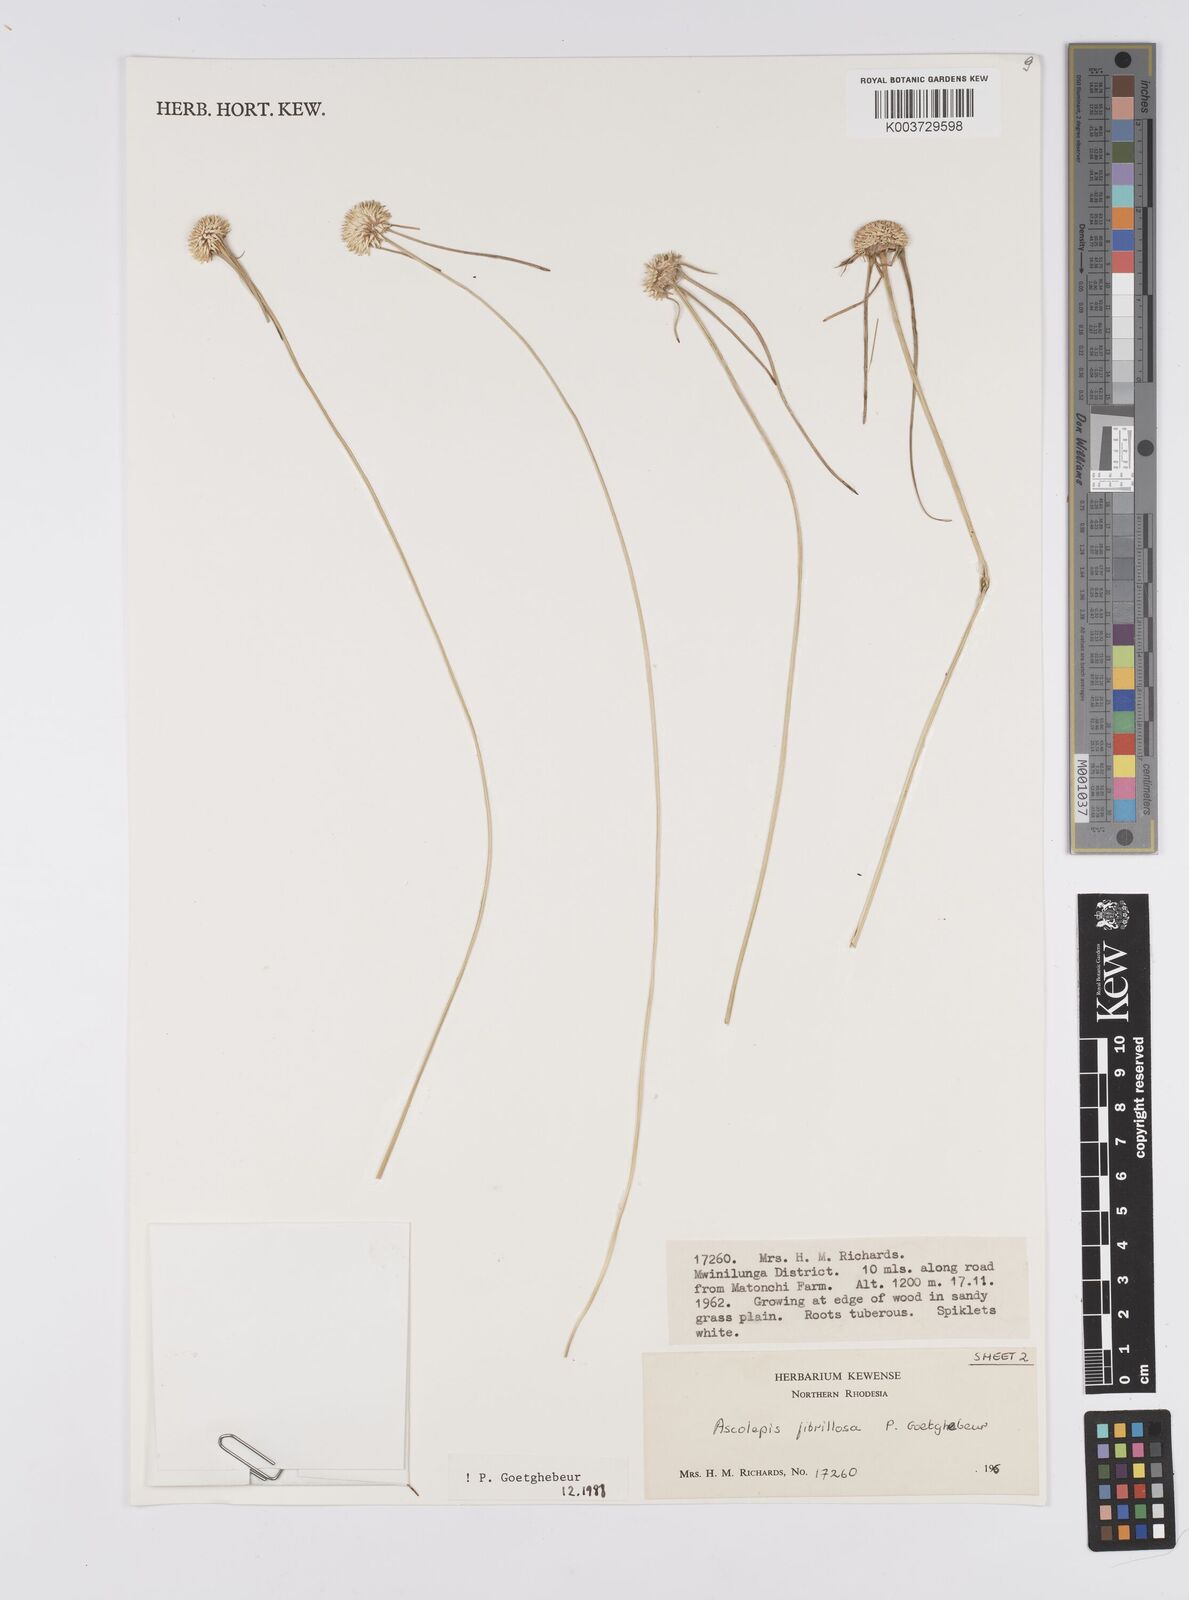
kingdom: Plantae
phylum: Tracheophyta
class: Liliopsida
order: Poales
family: Cyperaceae
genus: Cyperus
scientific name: Cyperus
